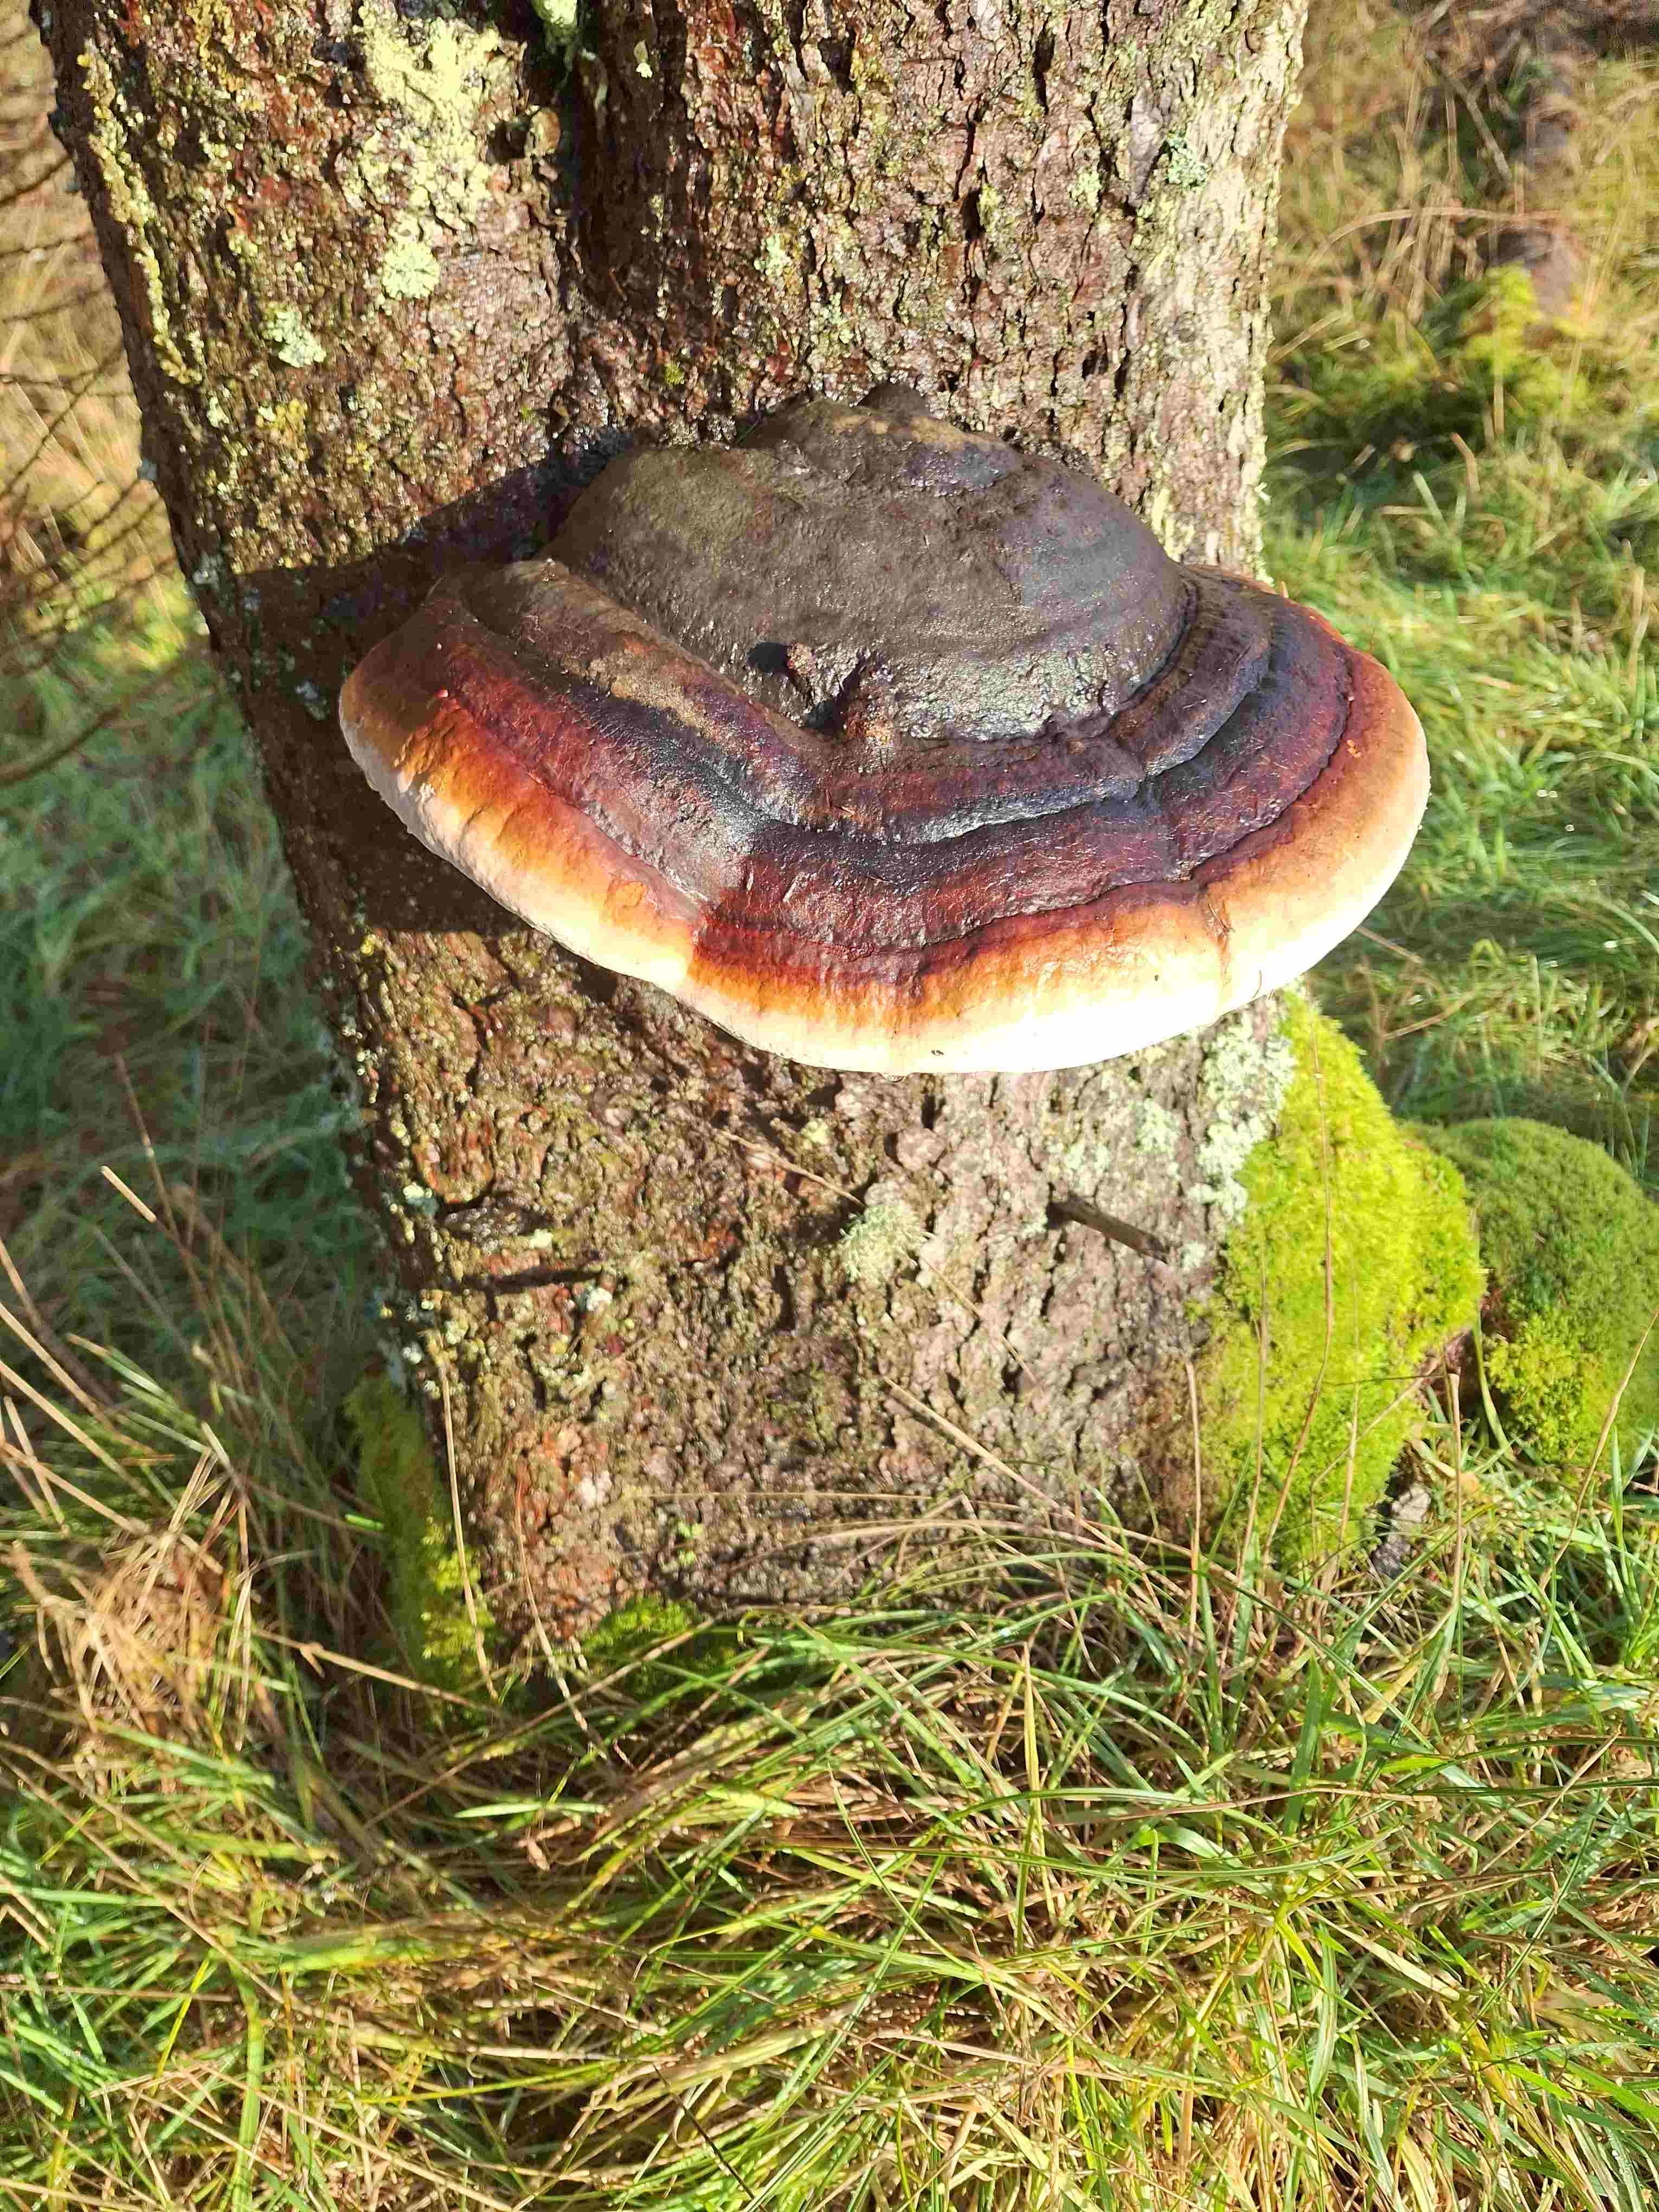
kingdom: Fungi
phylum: Basidiomycota
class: Agaricomycetes
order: Polyporales
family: Fomitopsidaceae
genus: Fomitopsis
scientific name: Fomitopsis pinicola
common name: randbæltet hovporesvamp
